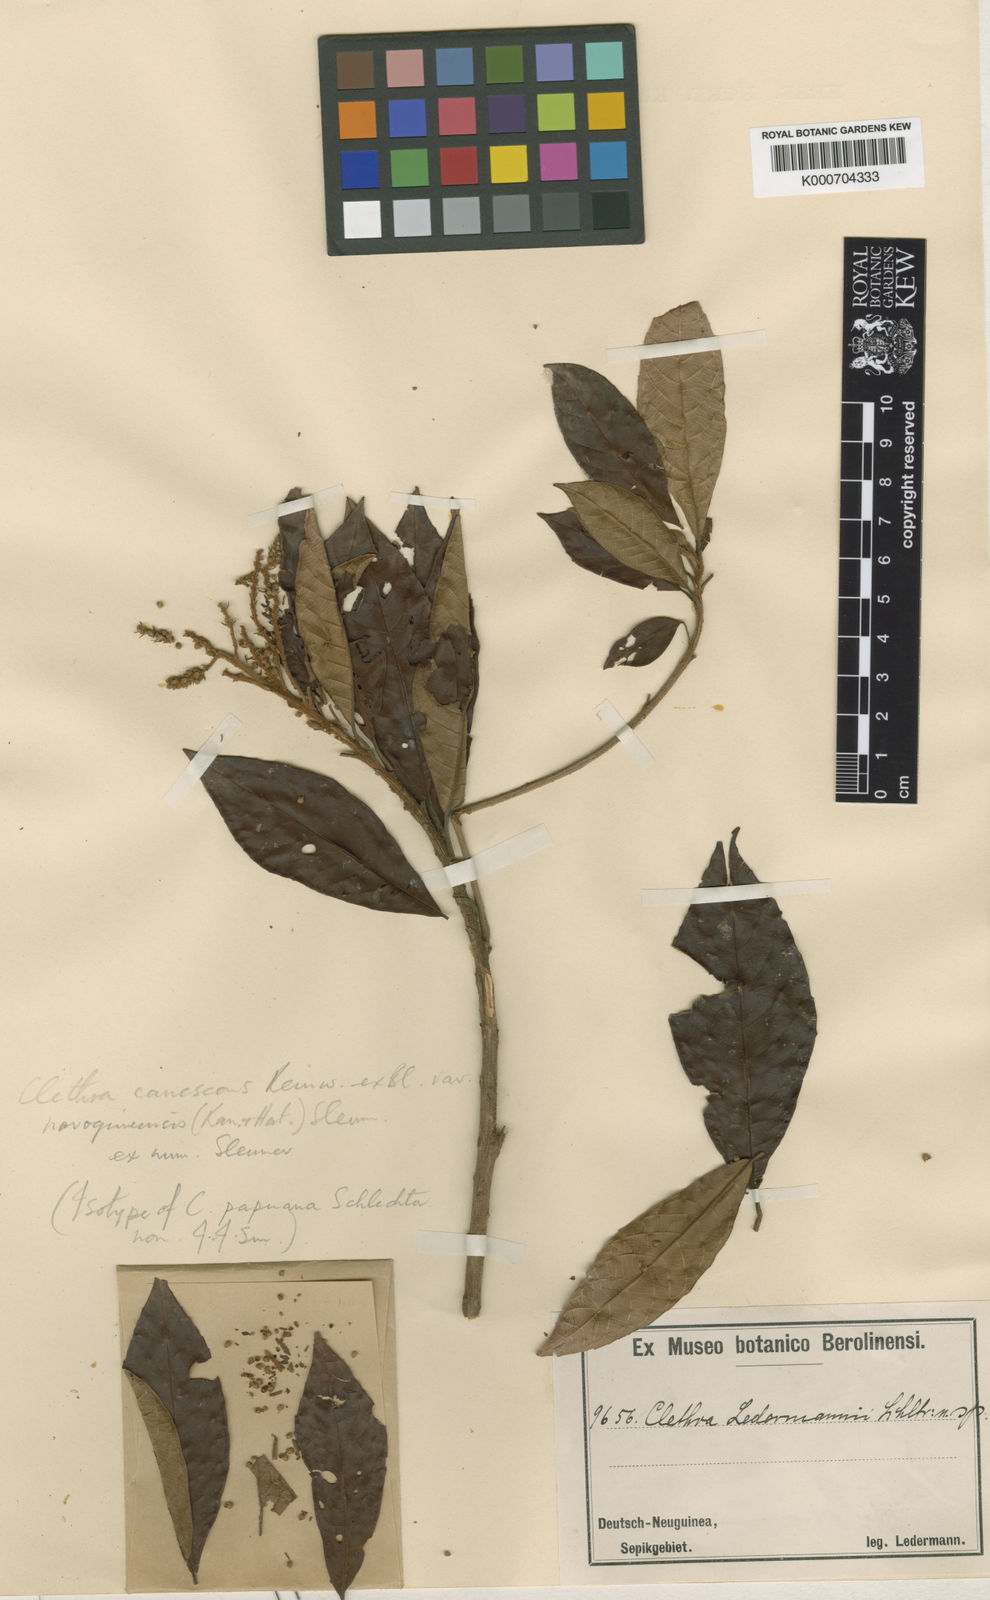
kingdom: Plantae
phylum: Tracheophyta
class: Magnoliopsida
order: Ericales
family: Clethraceae
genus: Clethra
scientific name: Clethra canescens
